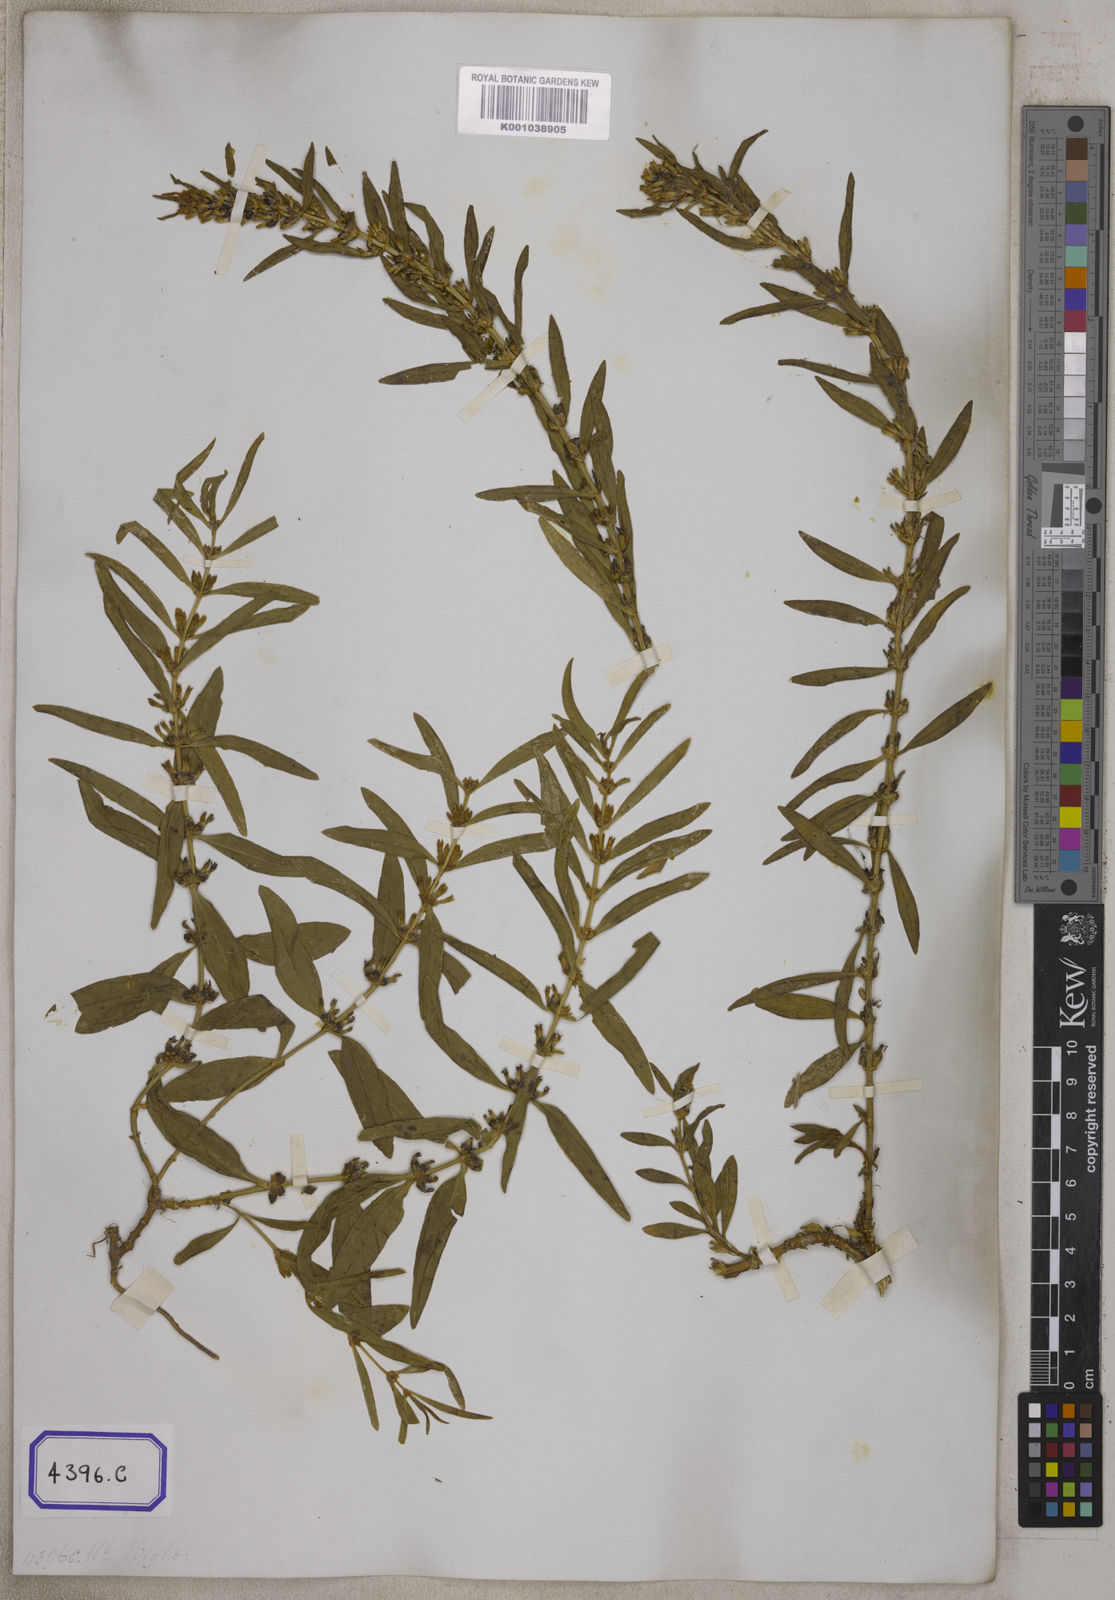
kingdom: Plantae
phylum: Tracheophyta
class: Magnoliopsida
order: Gentianales
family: Gentianaceae
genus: Enicostema
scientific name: Enicostema verticillatum
